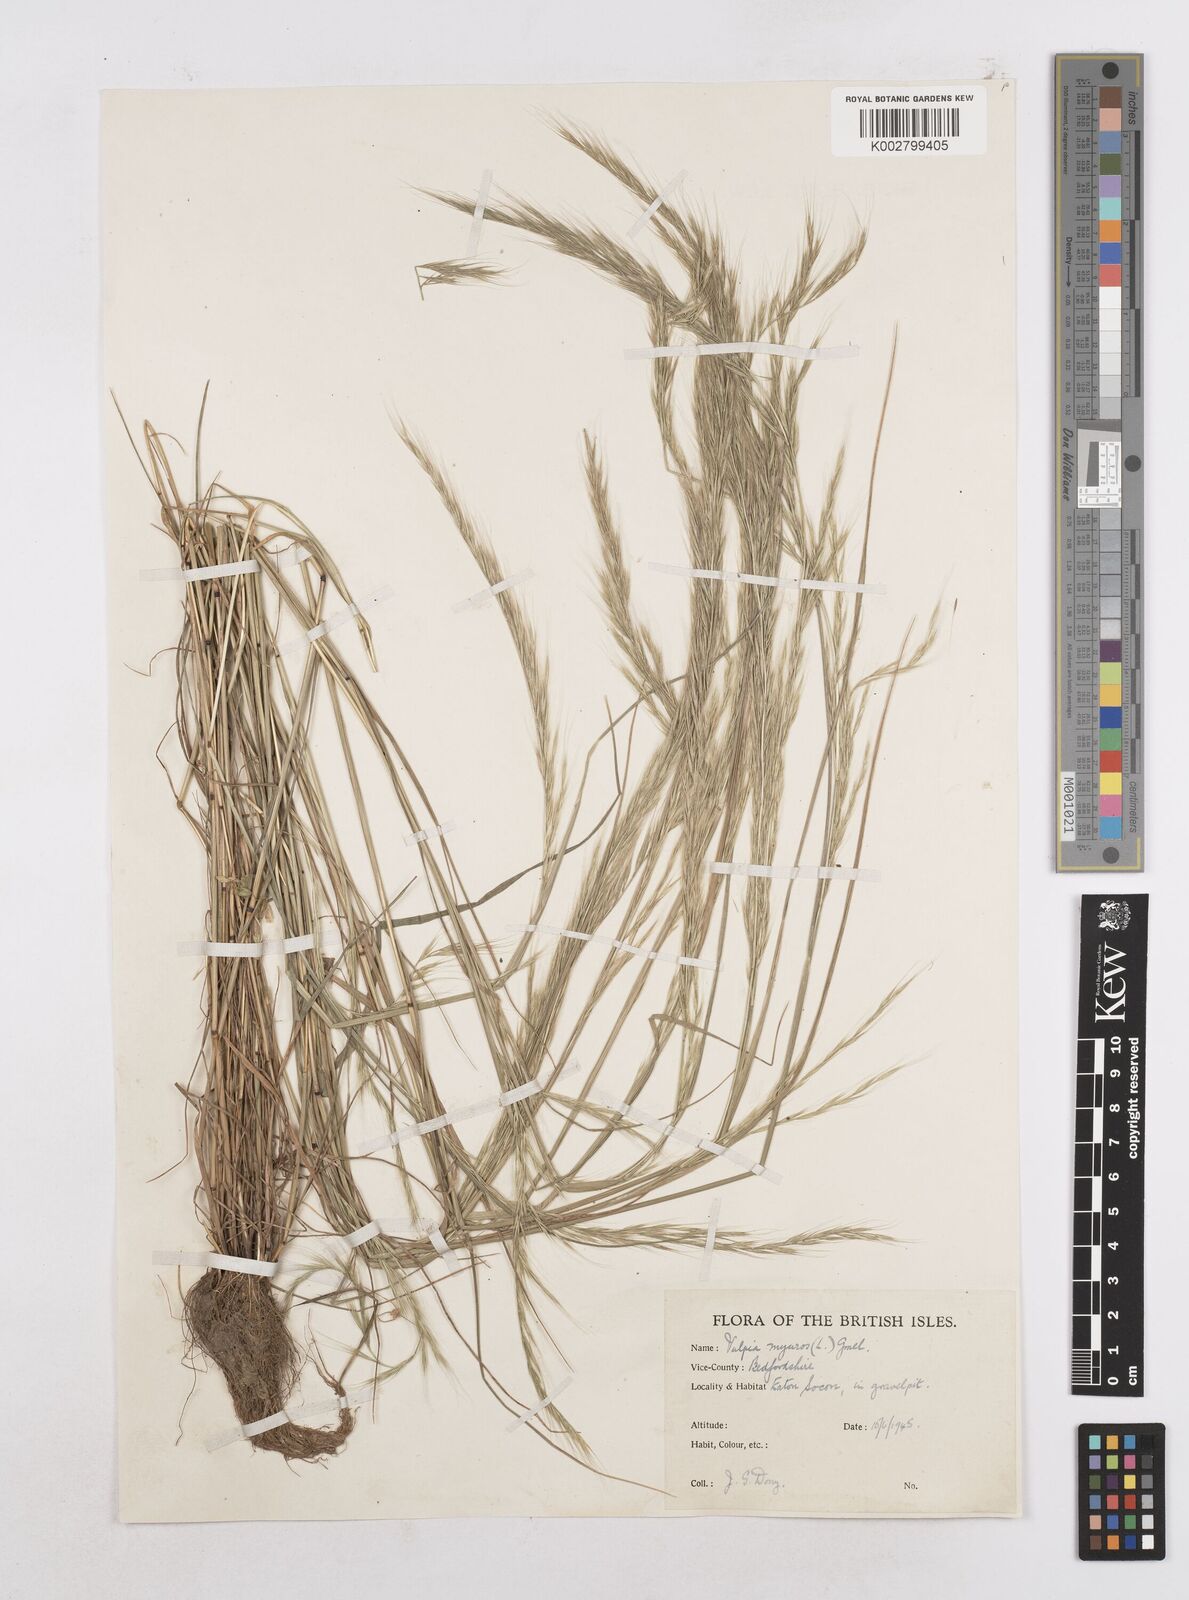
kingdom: Plantae
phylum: Tracheophyta
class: Liliopsida
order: Poales
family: Poaceae
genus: Festuca
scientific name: Festuca myuros
